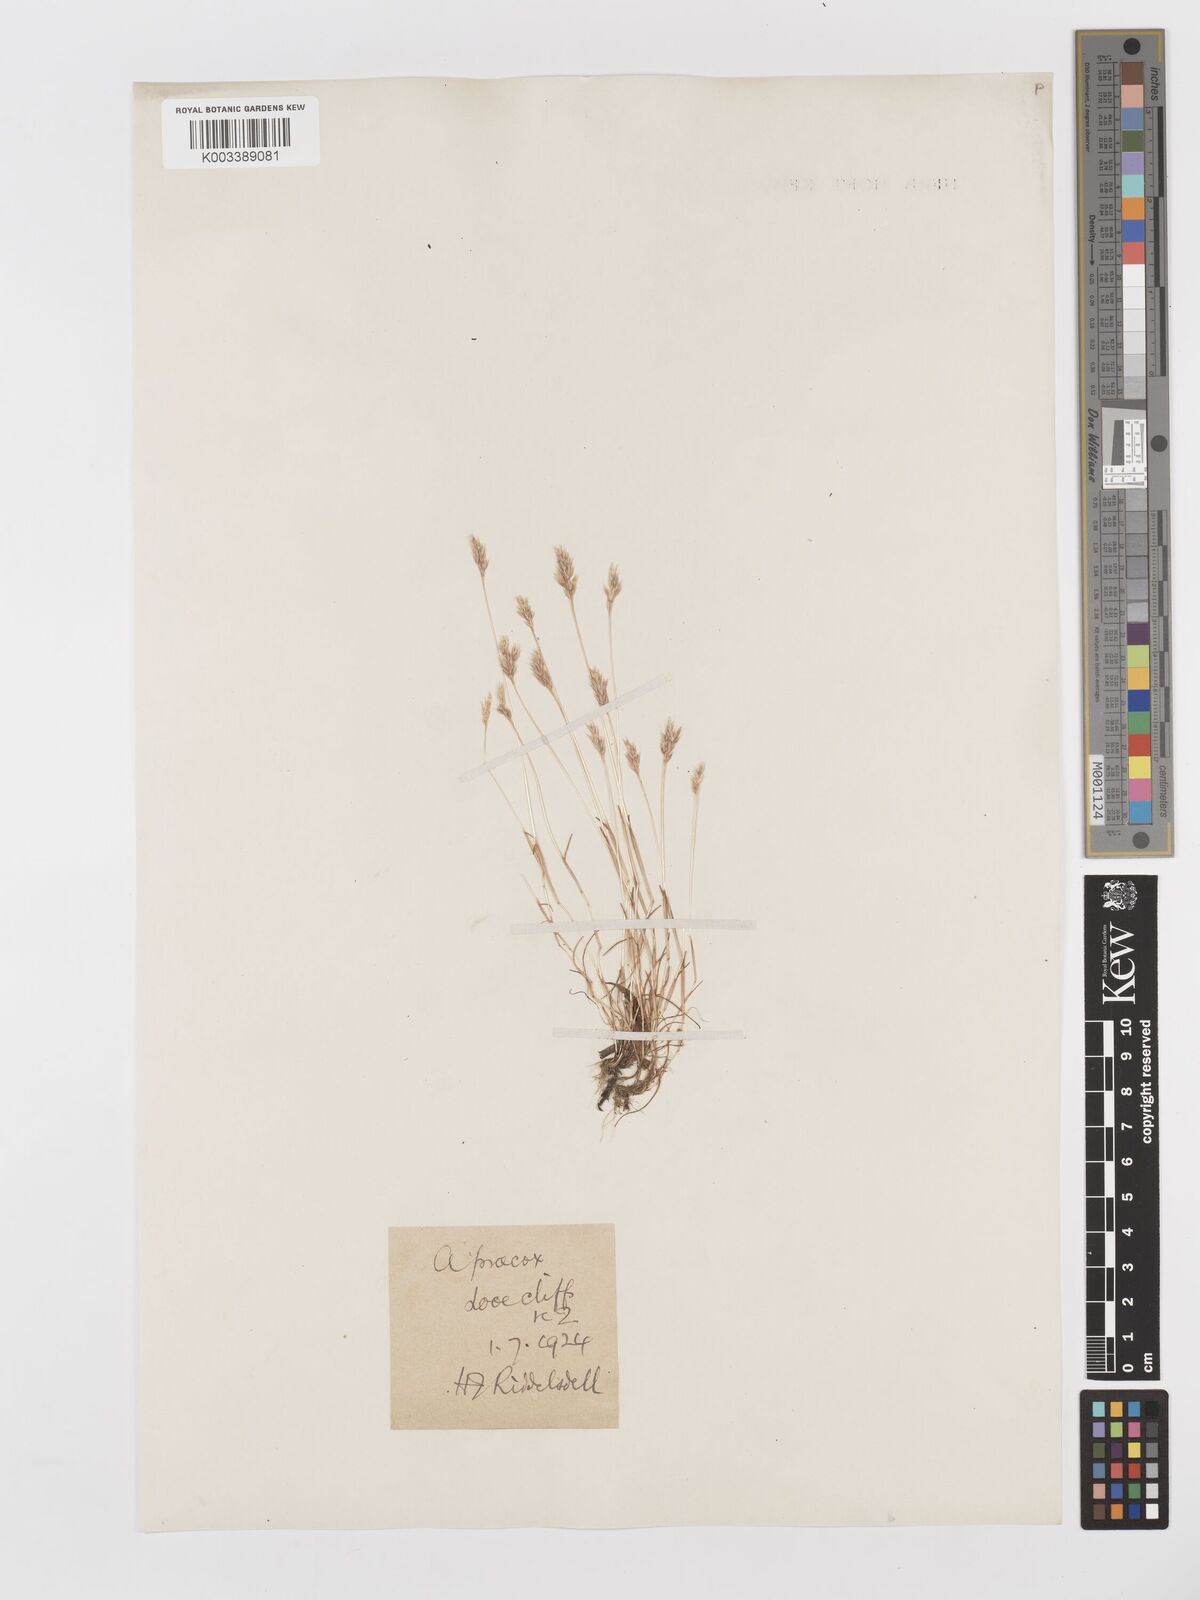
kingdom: Plantae
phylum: Tracheophyta
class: Liliopsida
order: Poales
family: Poaceae
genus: Aira
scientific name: Aira praecox
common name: Early hair-grass
